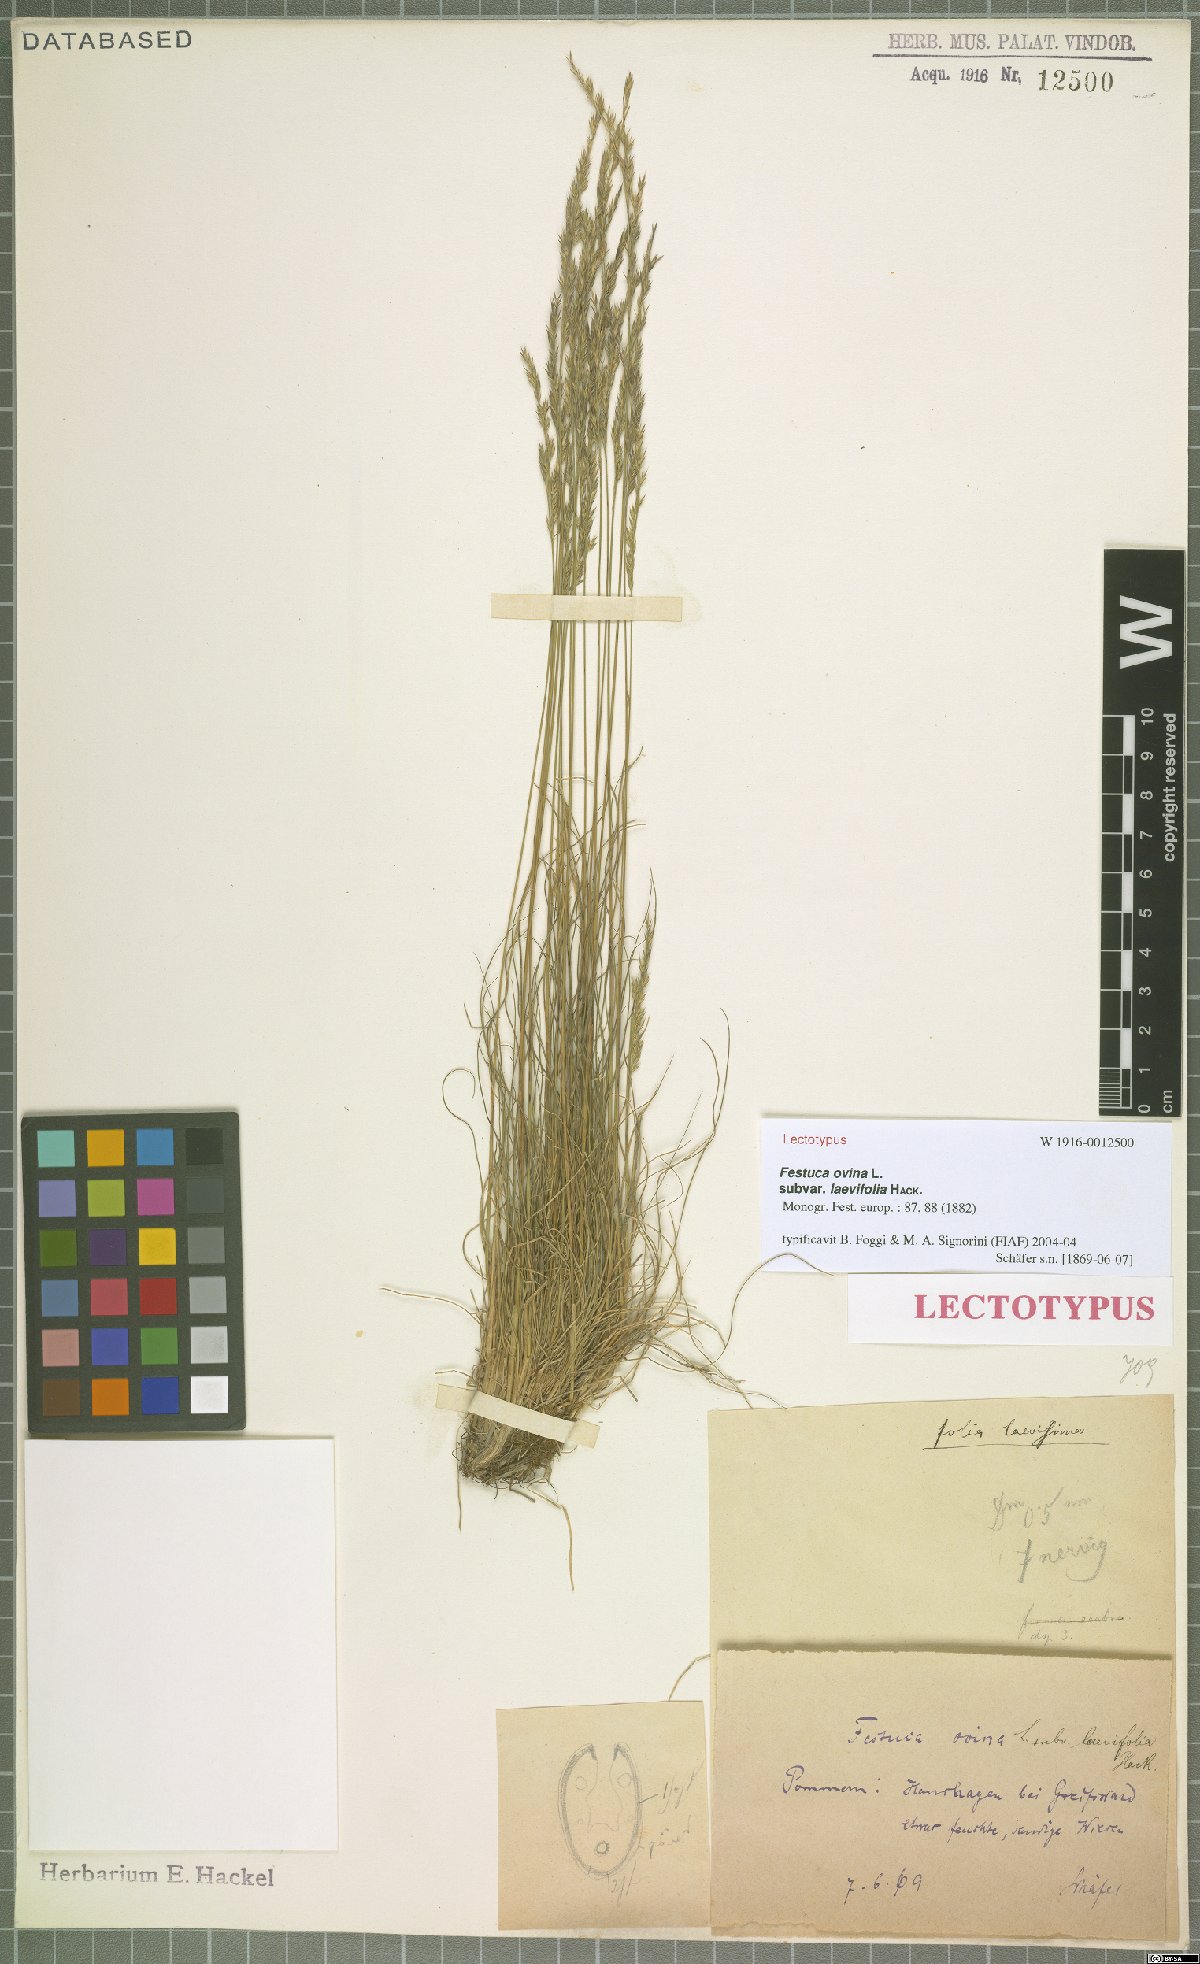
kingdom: Plantae
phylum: Tracheophyta
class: Liliopsida
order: Poales
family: Poaceae
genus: Festuca
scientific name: Festuca ovina
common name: Sheep fescue
